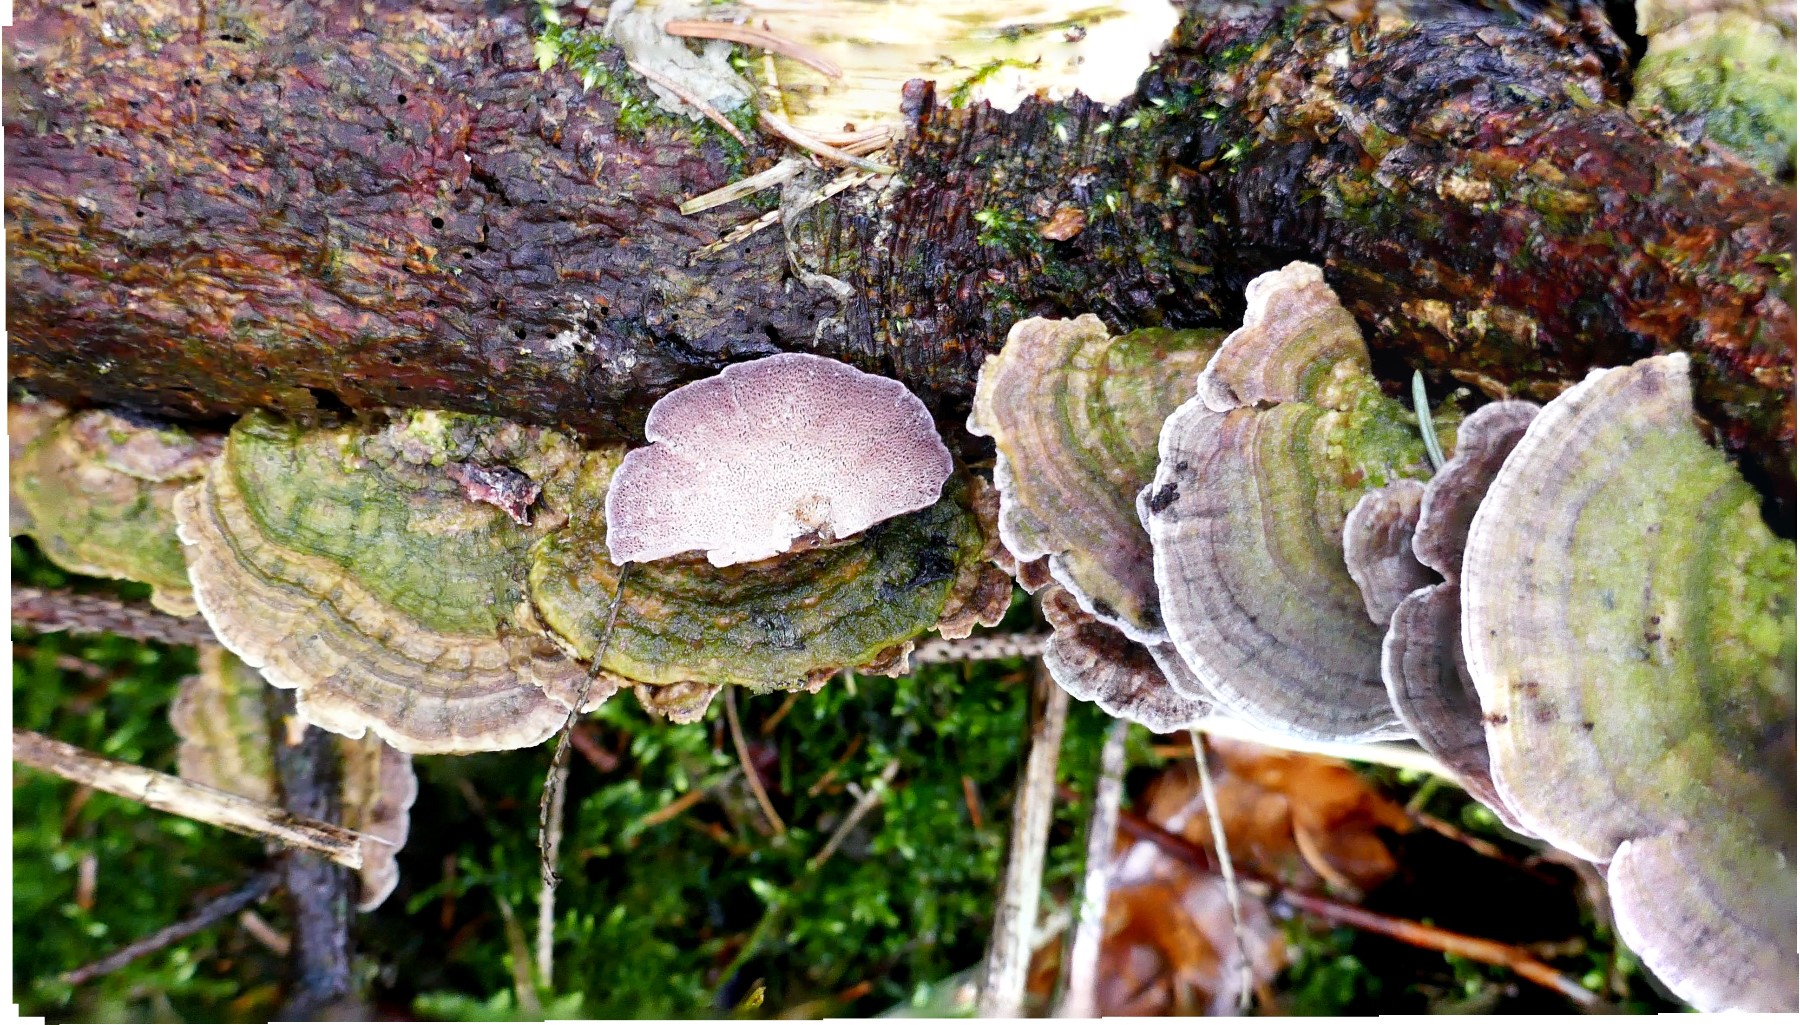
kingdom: Fungi
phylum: Basidiomycota
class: Agaricomycetes
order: Hymenochaetales
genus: Trichaptum
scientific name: Trichaptum abietinum
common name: almindelig violporesvamp
